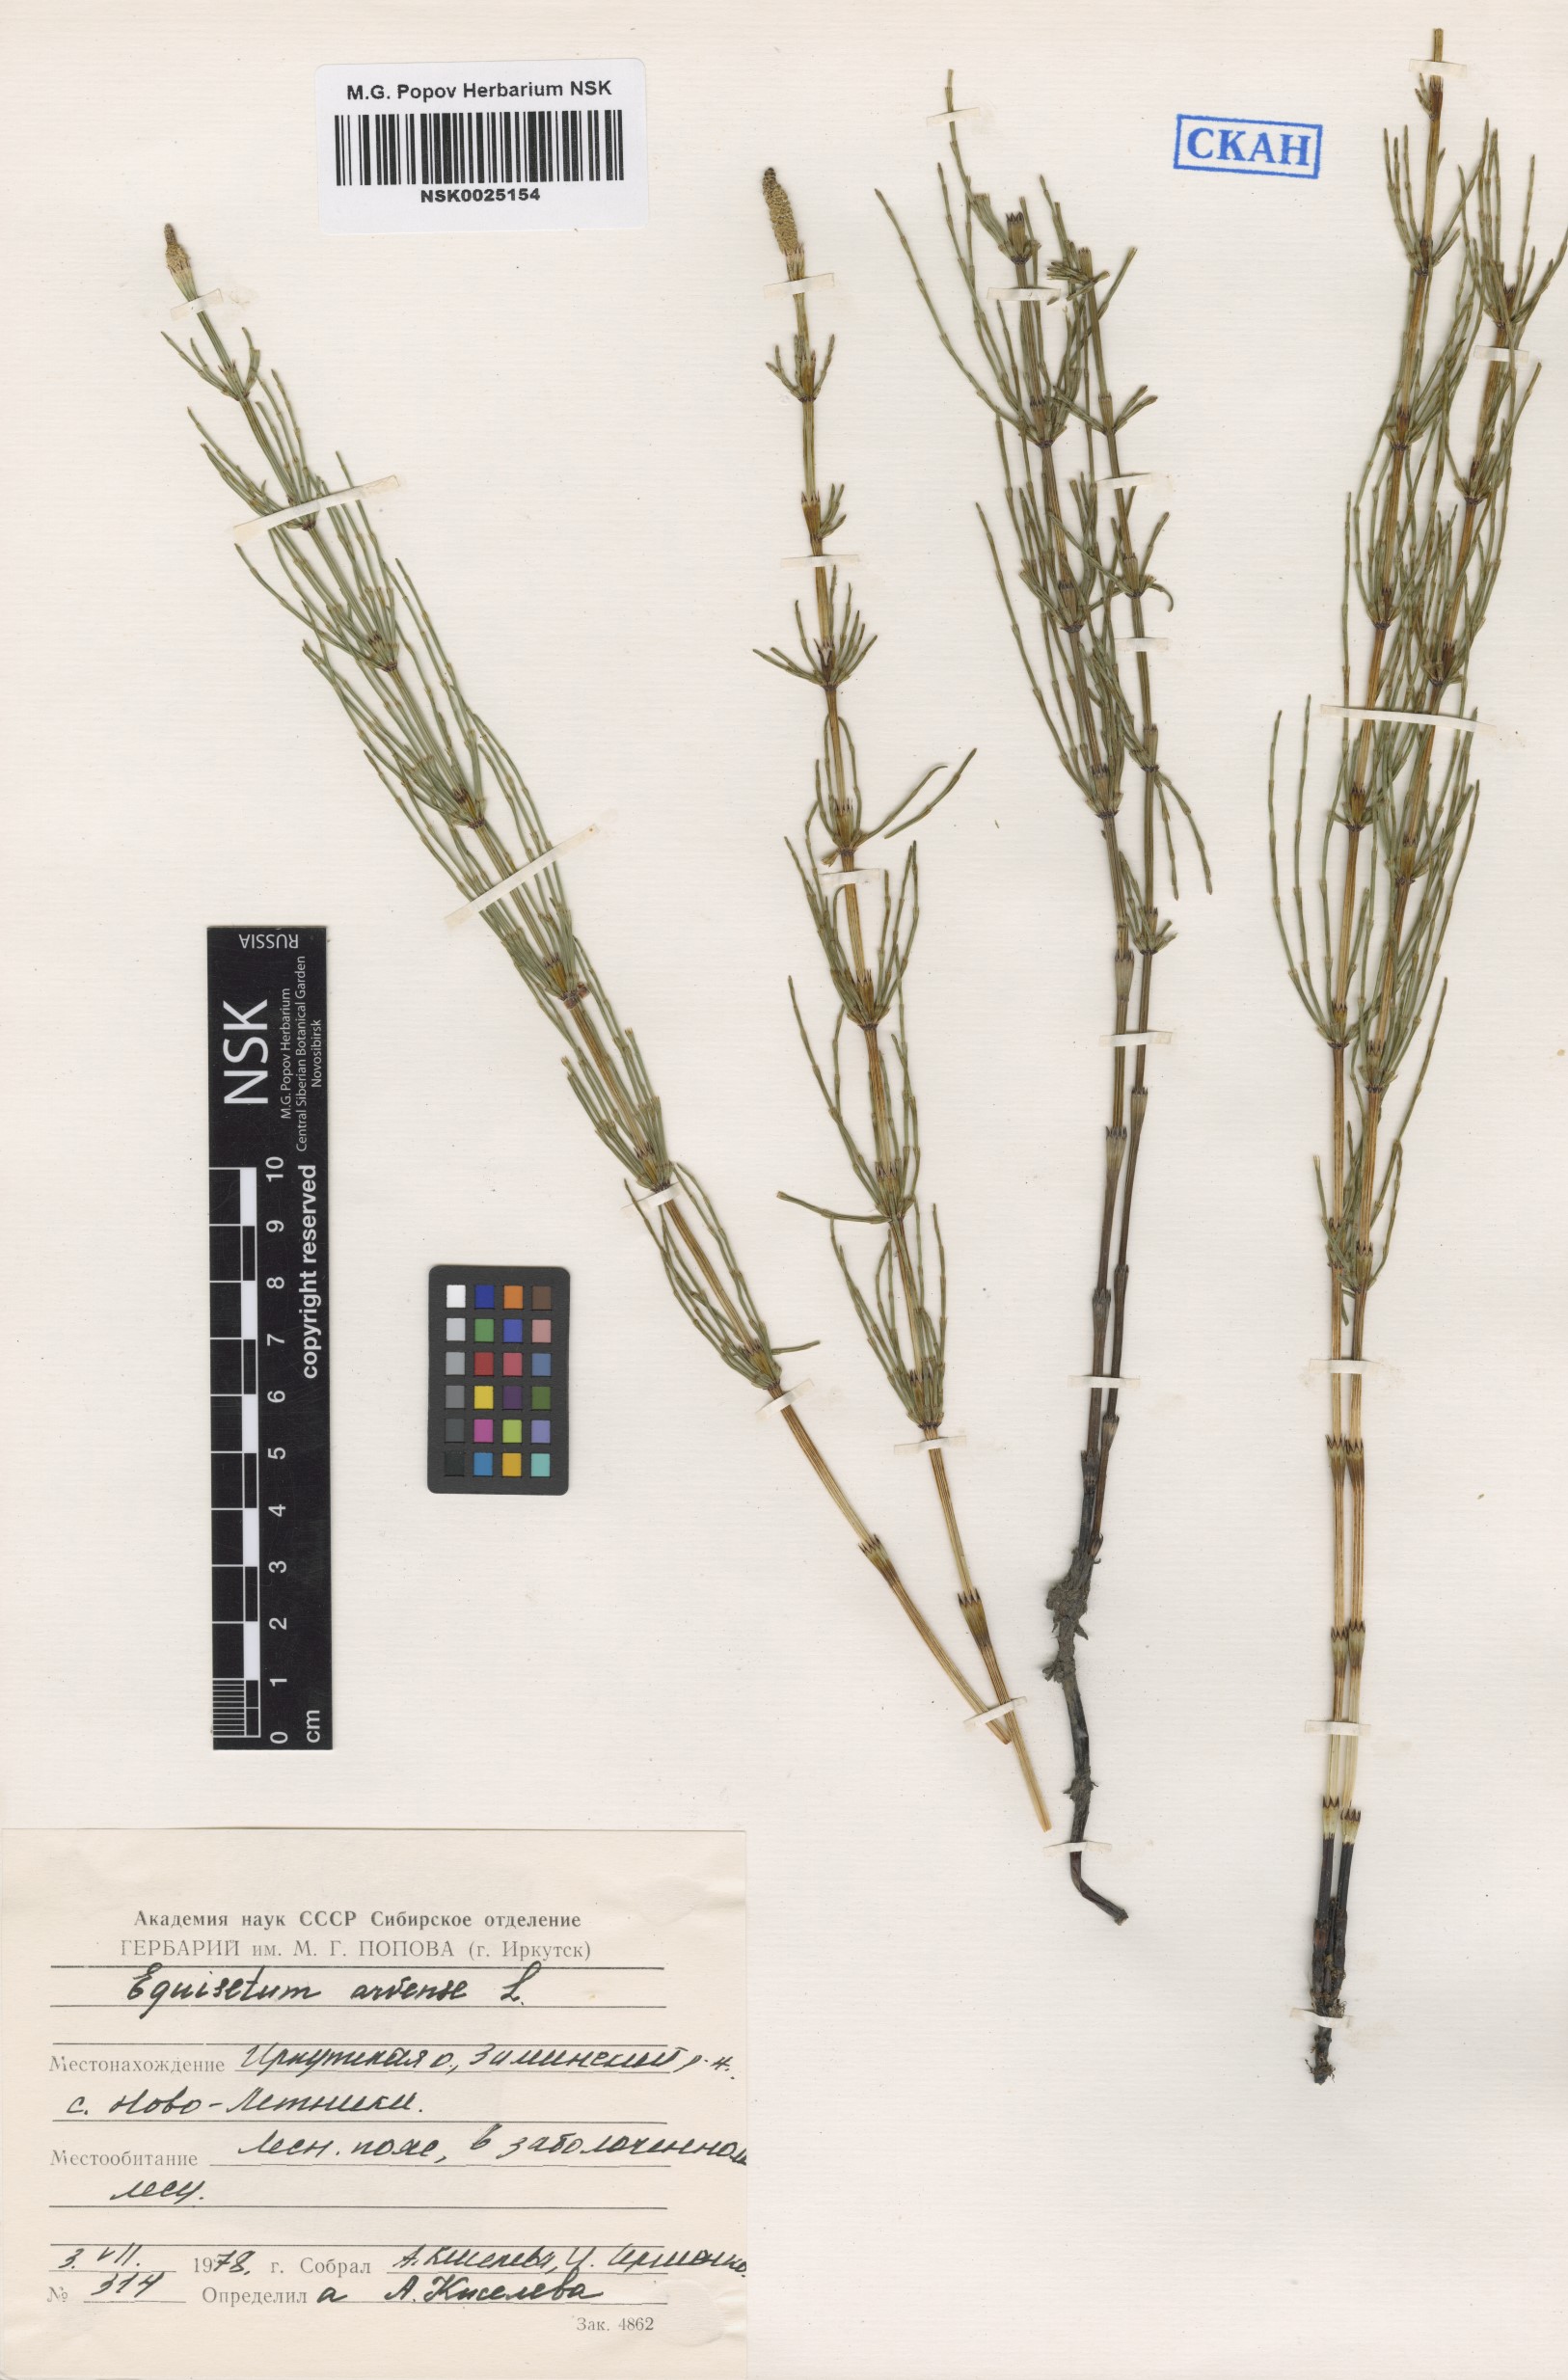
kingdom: Plantae
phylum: Tracheophyta
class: Polypodiopsida
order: Equisetales
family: Equisetaceae
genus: Equisetum
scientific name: Equisetum arvense
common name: Field horsetail
